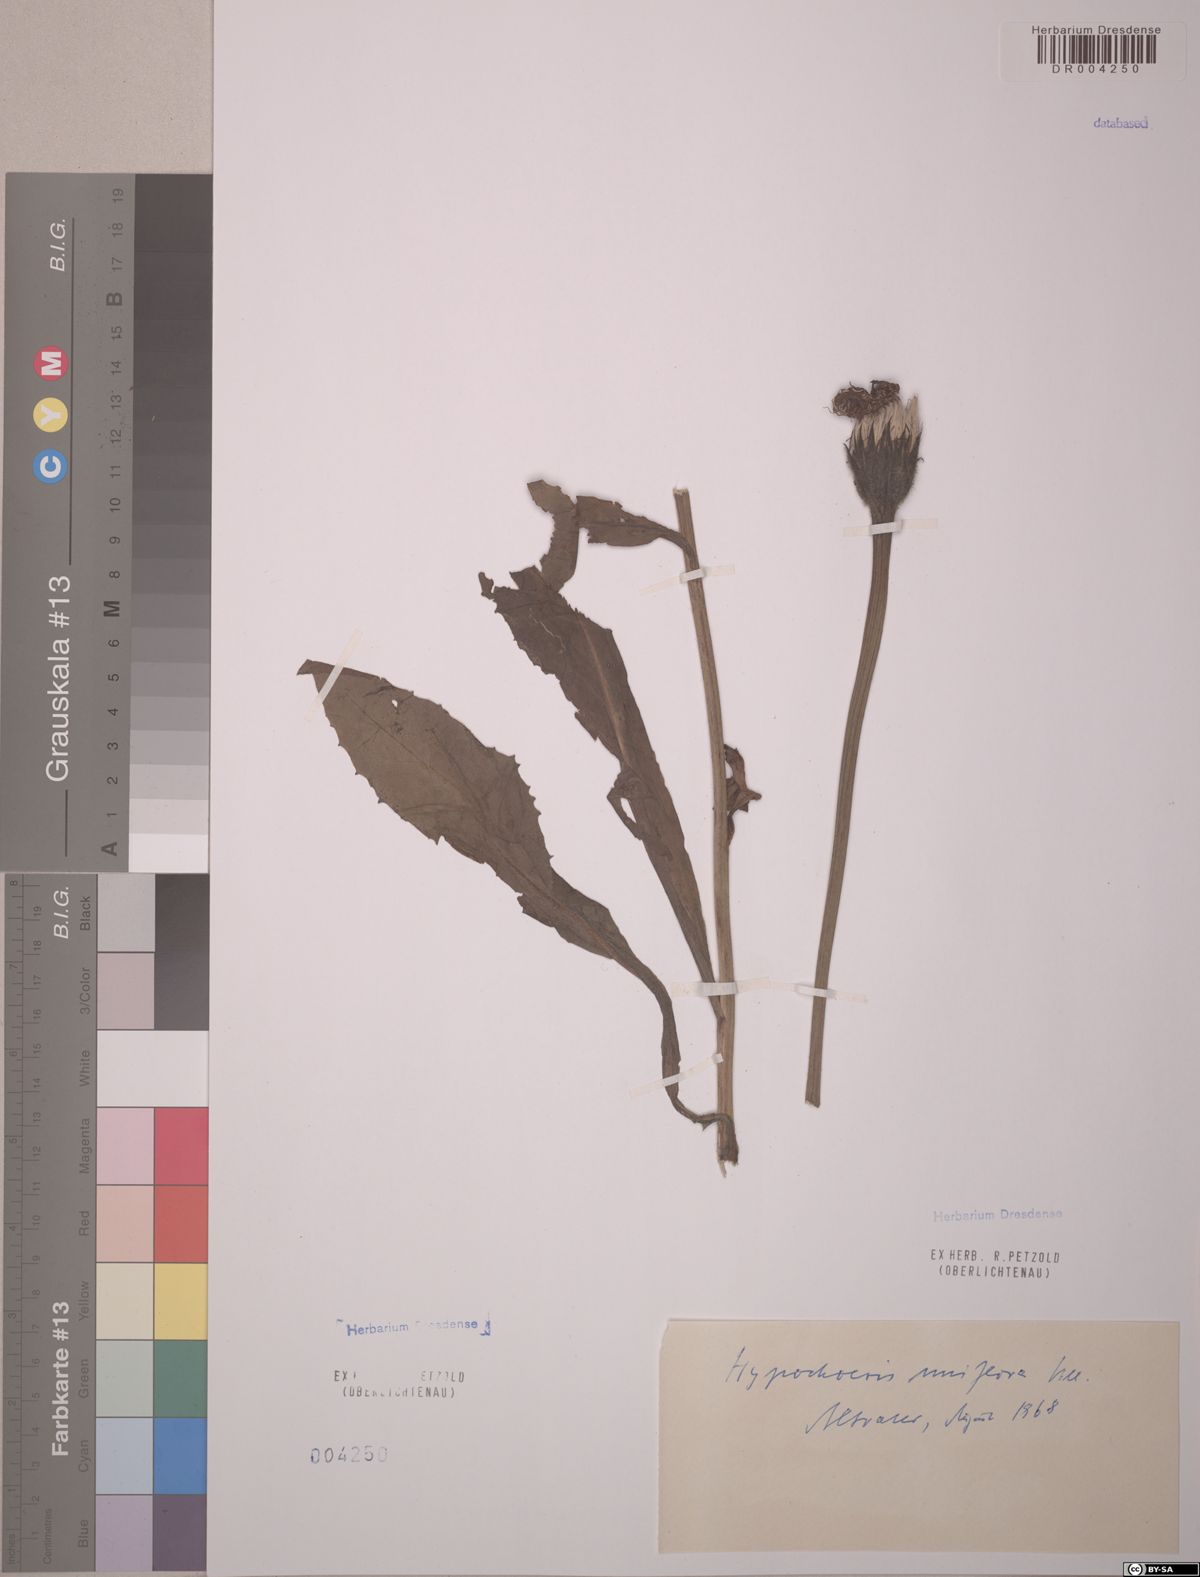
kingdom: Plantae
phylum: Tracheophyta
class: Magnoliopsida
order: Asterales
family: Asteraceae
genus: Trommsdorffia
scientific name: Trommsdorffia uniflora
